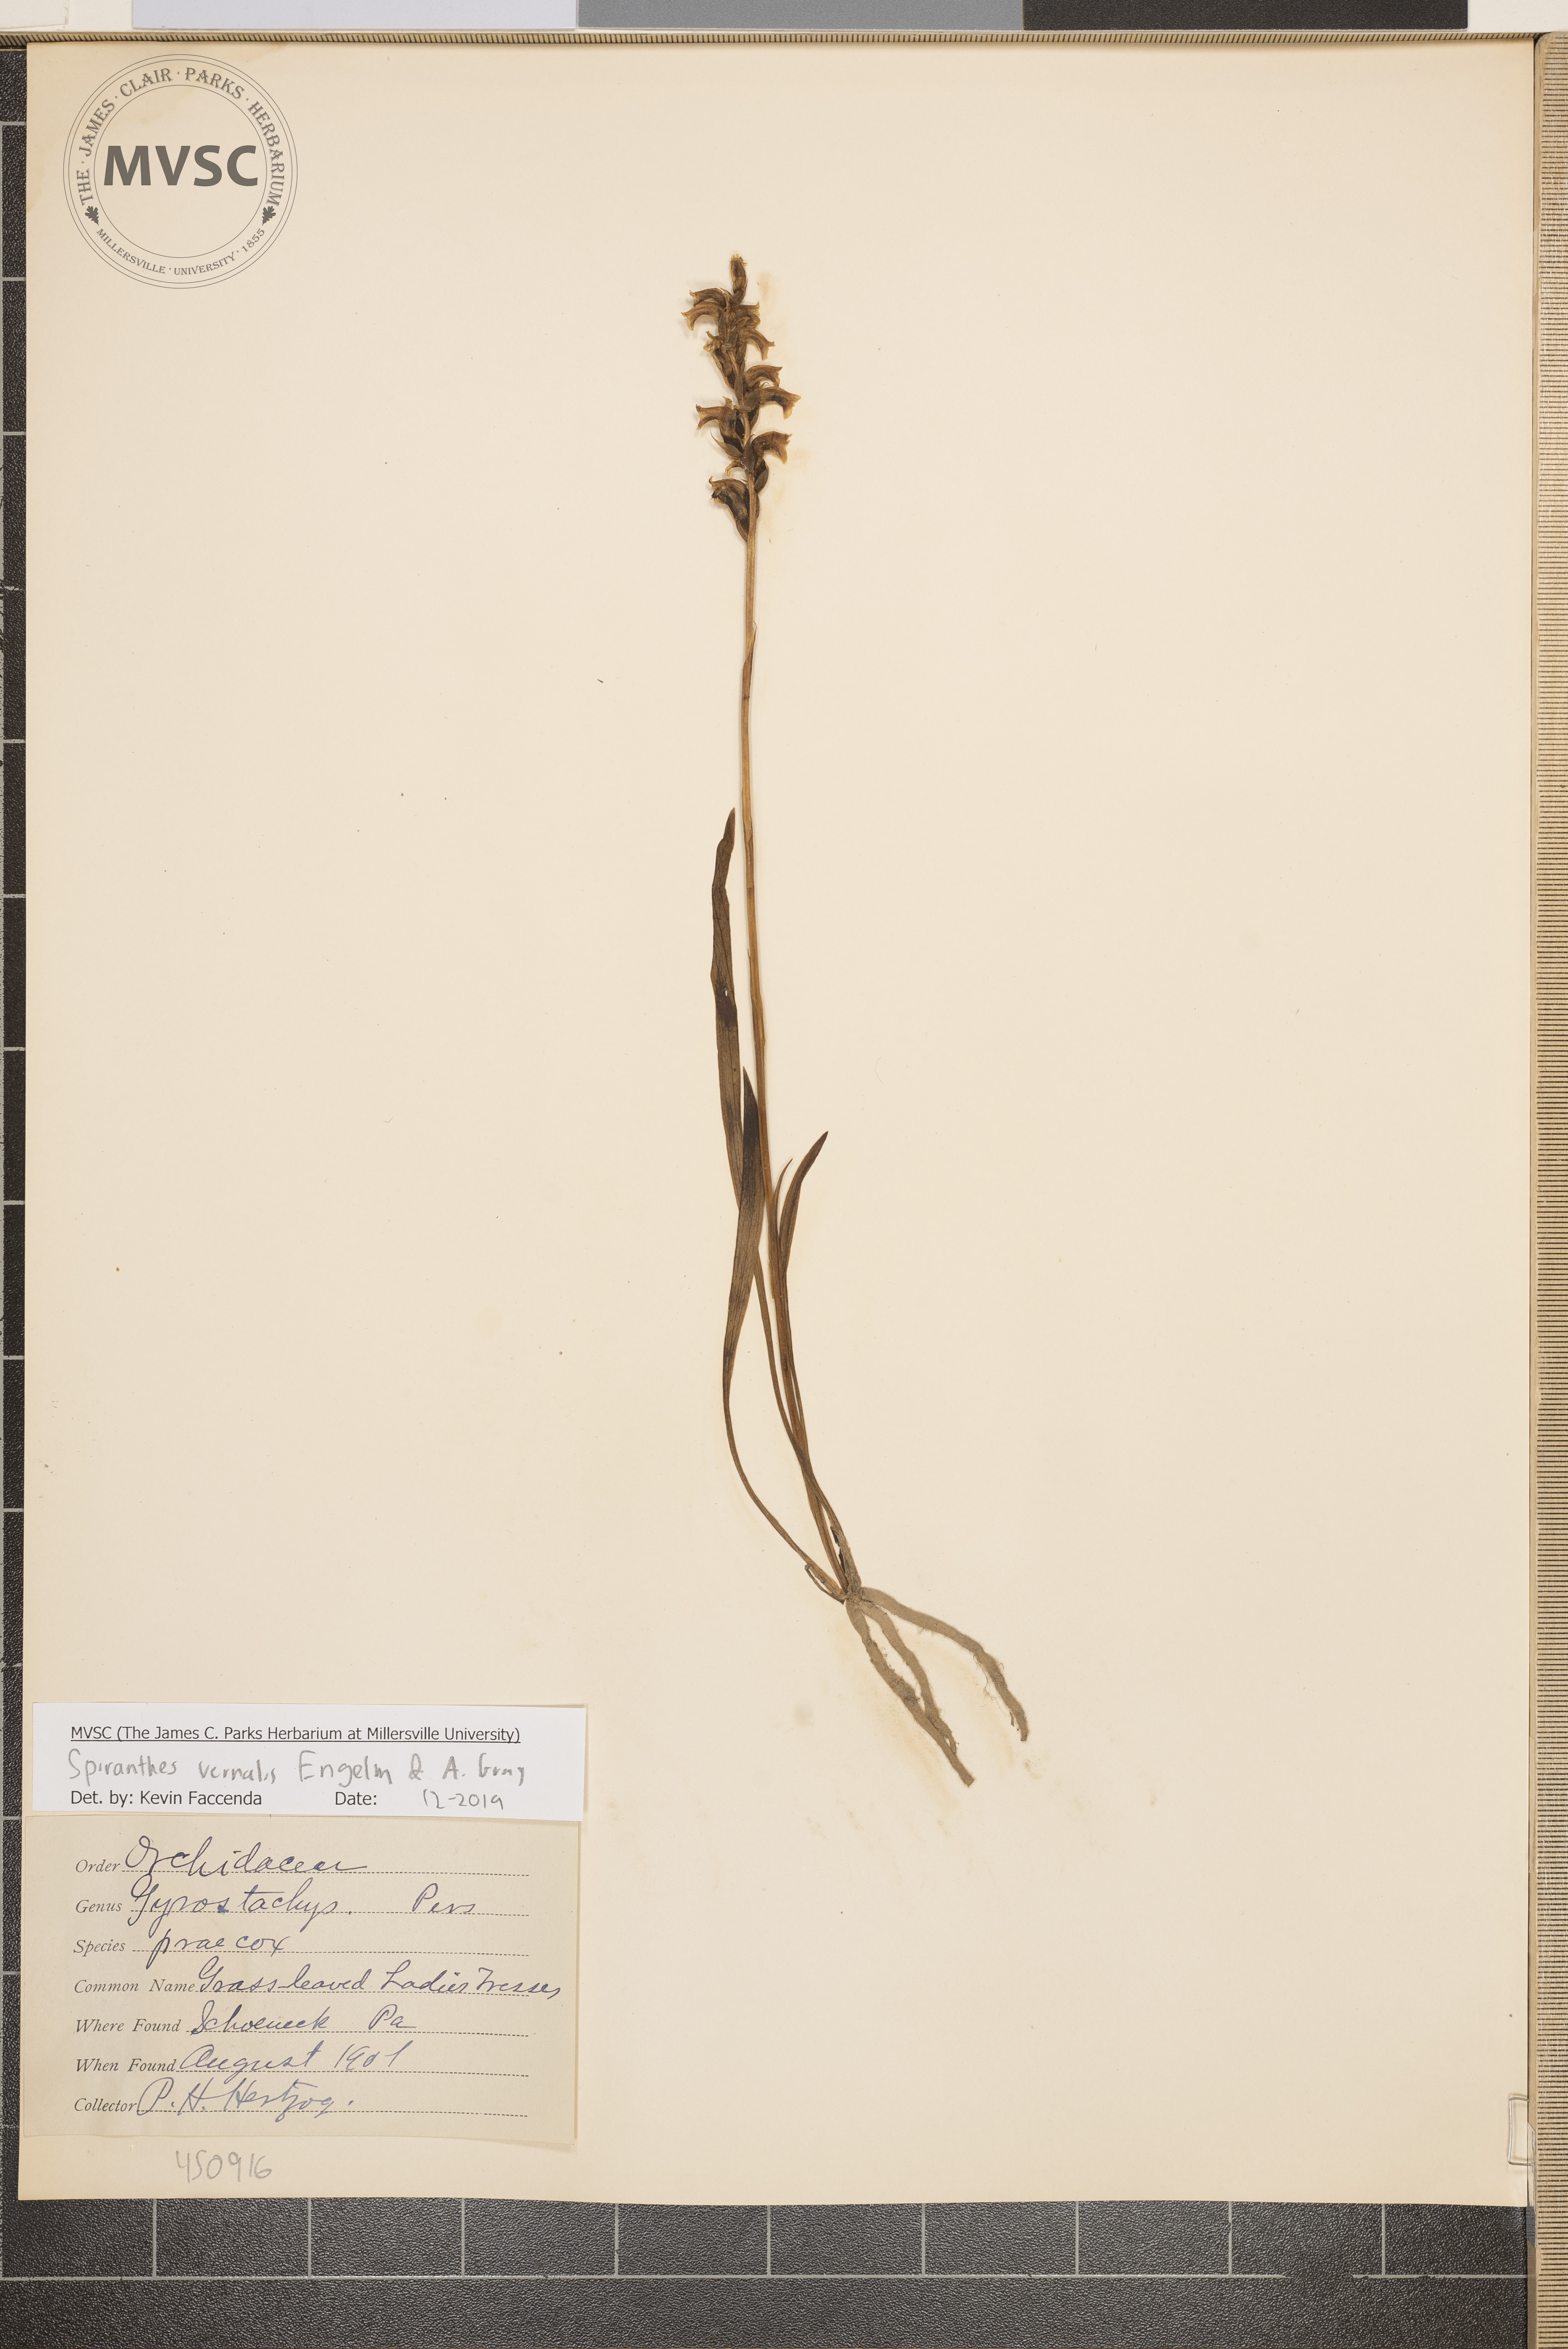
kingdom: Plantae
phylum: Tracheophyta
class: Liliopsida
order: Asparagales
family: Orchidaceae
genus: Spiranthes
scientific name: Spiranthes vernalis
